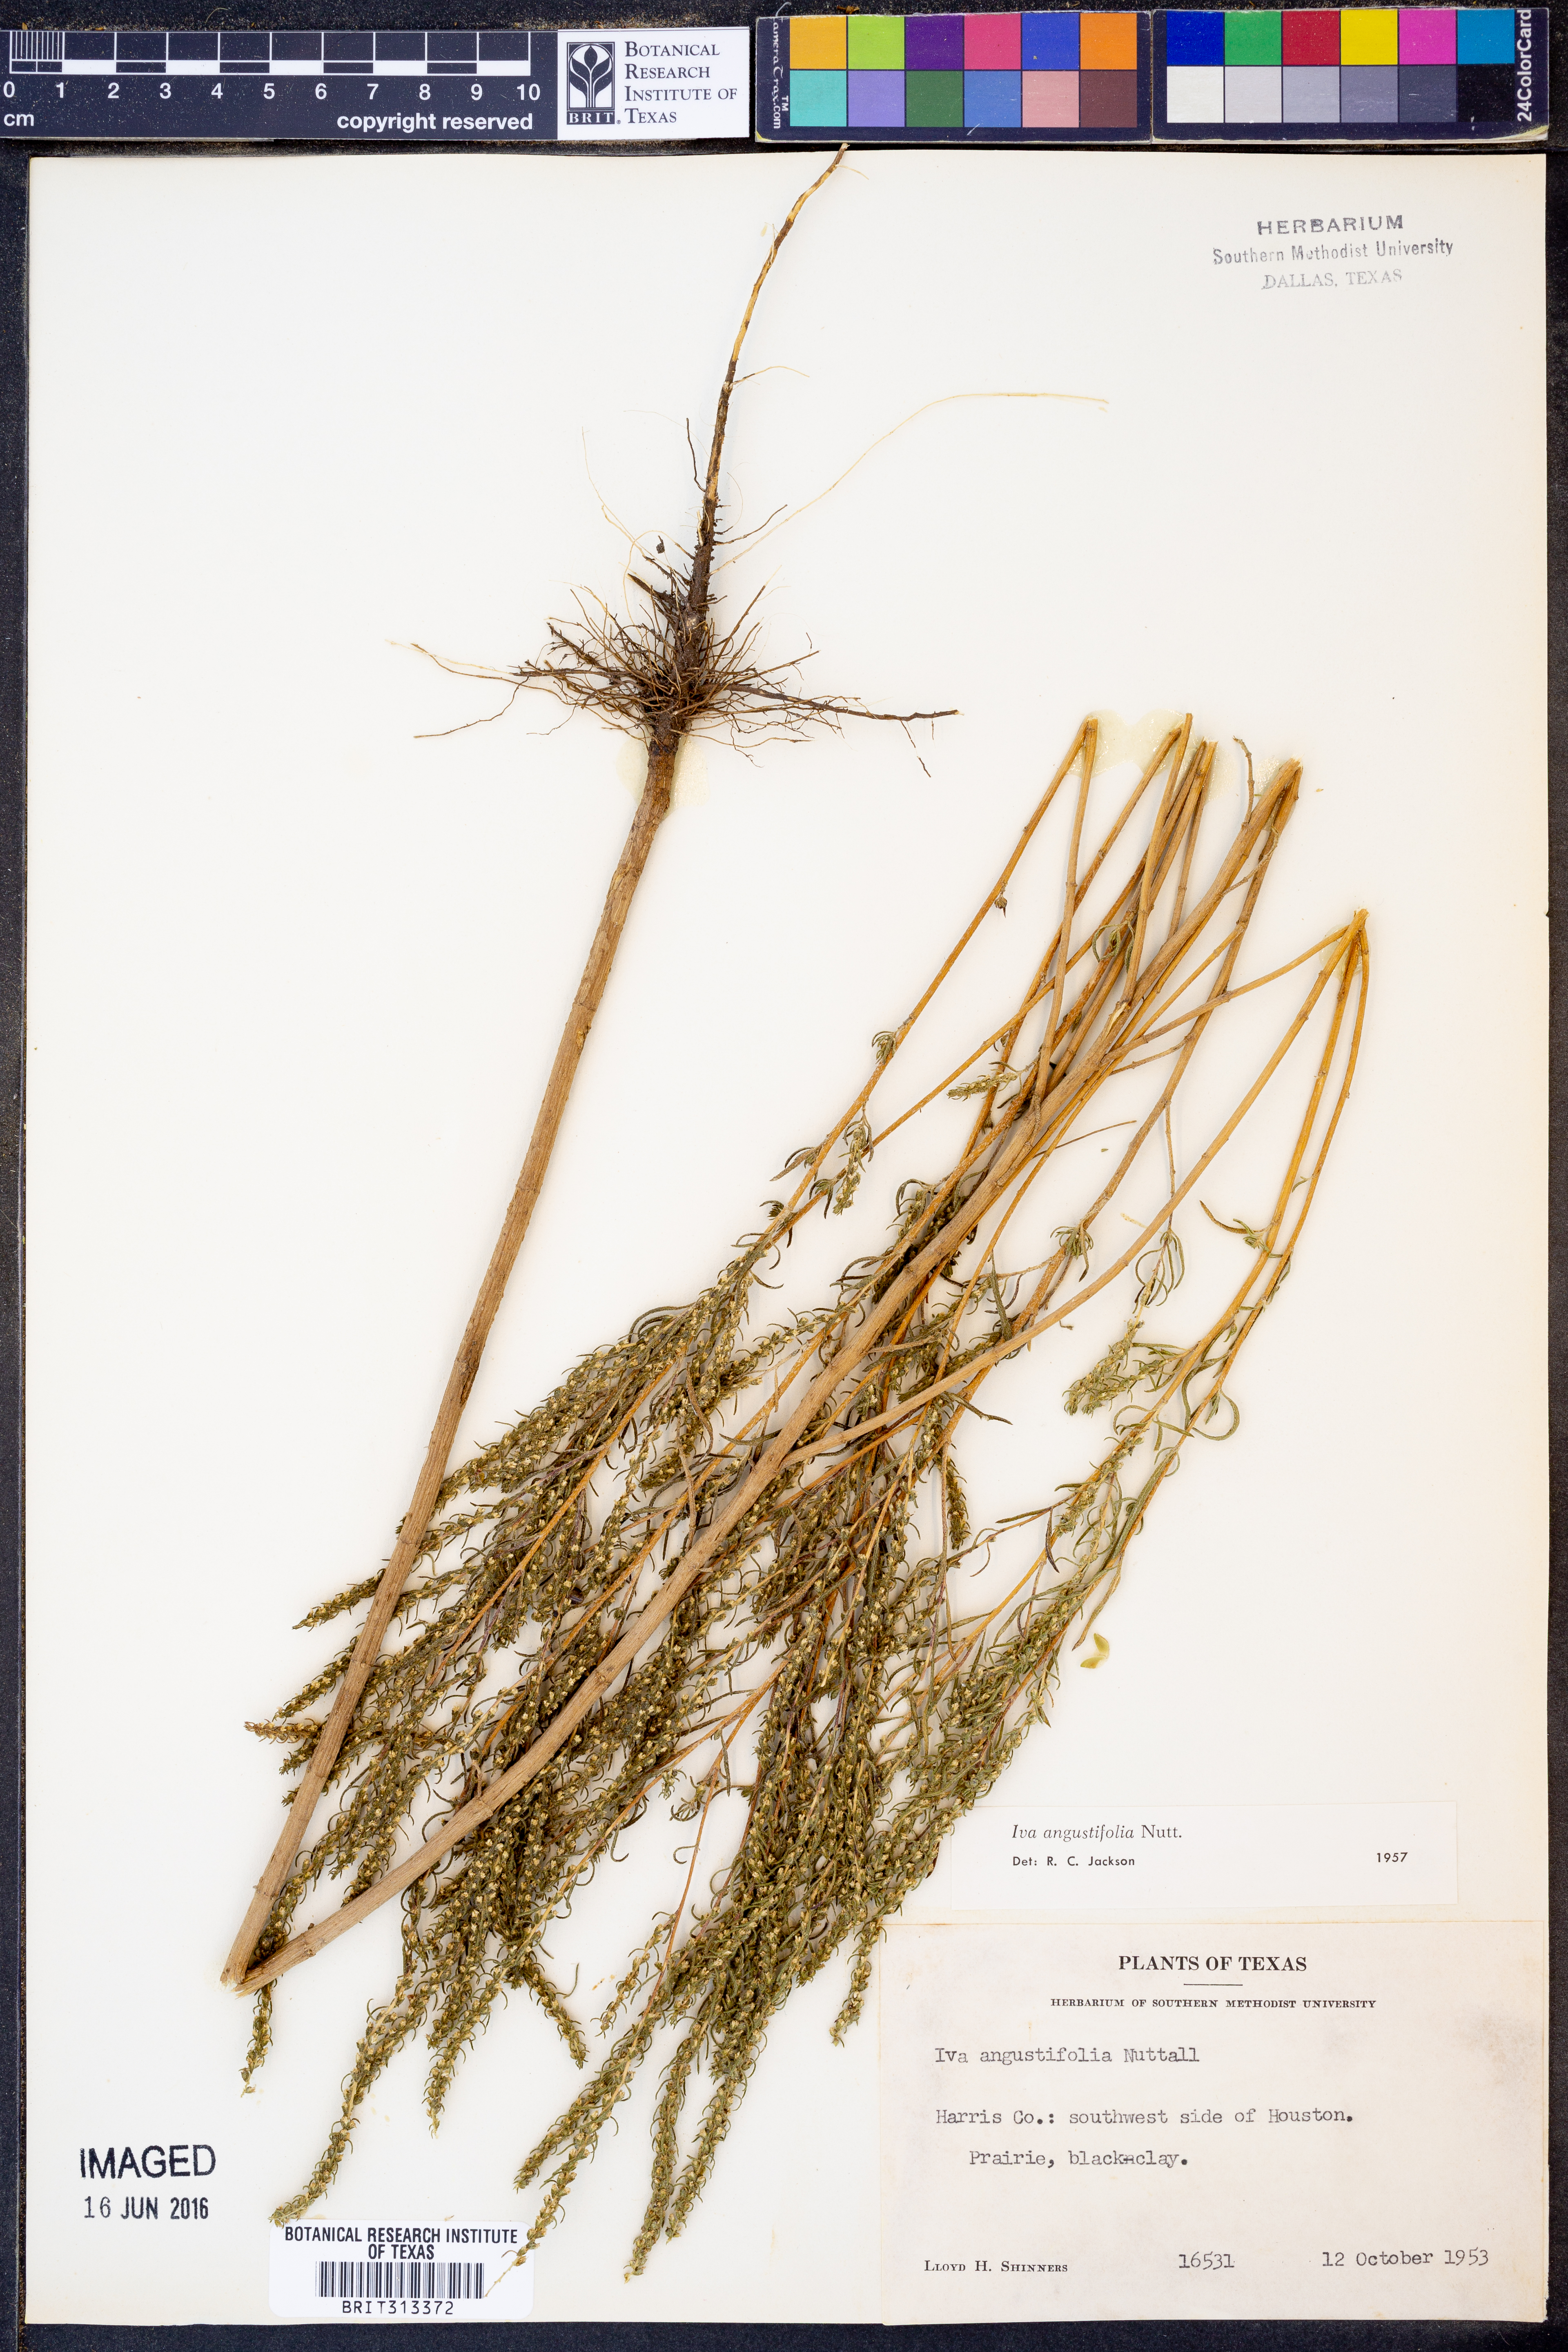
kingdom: Plantae
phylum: Tracheophyta
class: Magnoliopsida
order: Asterales
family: Asteraceae
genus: Iva
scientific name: Iva asperifolia
